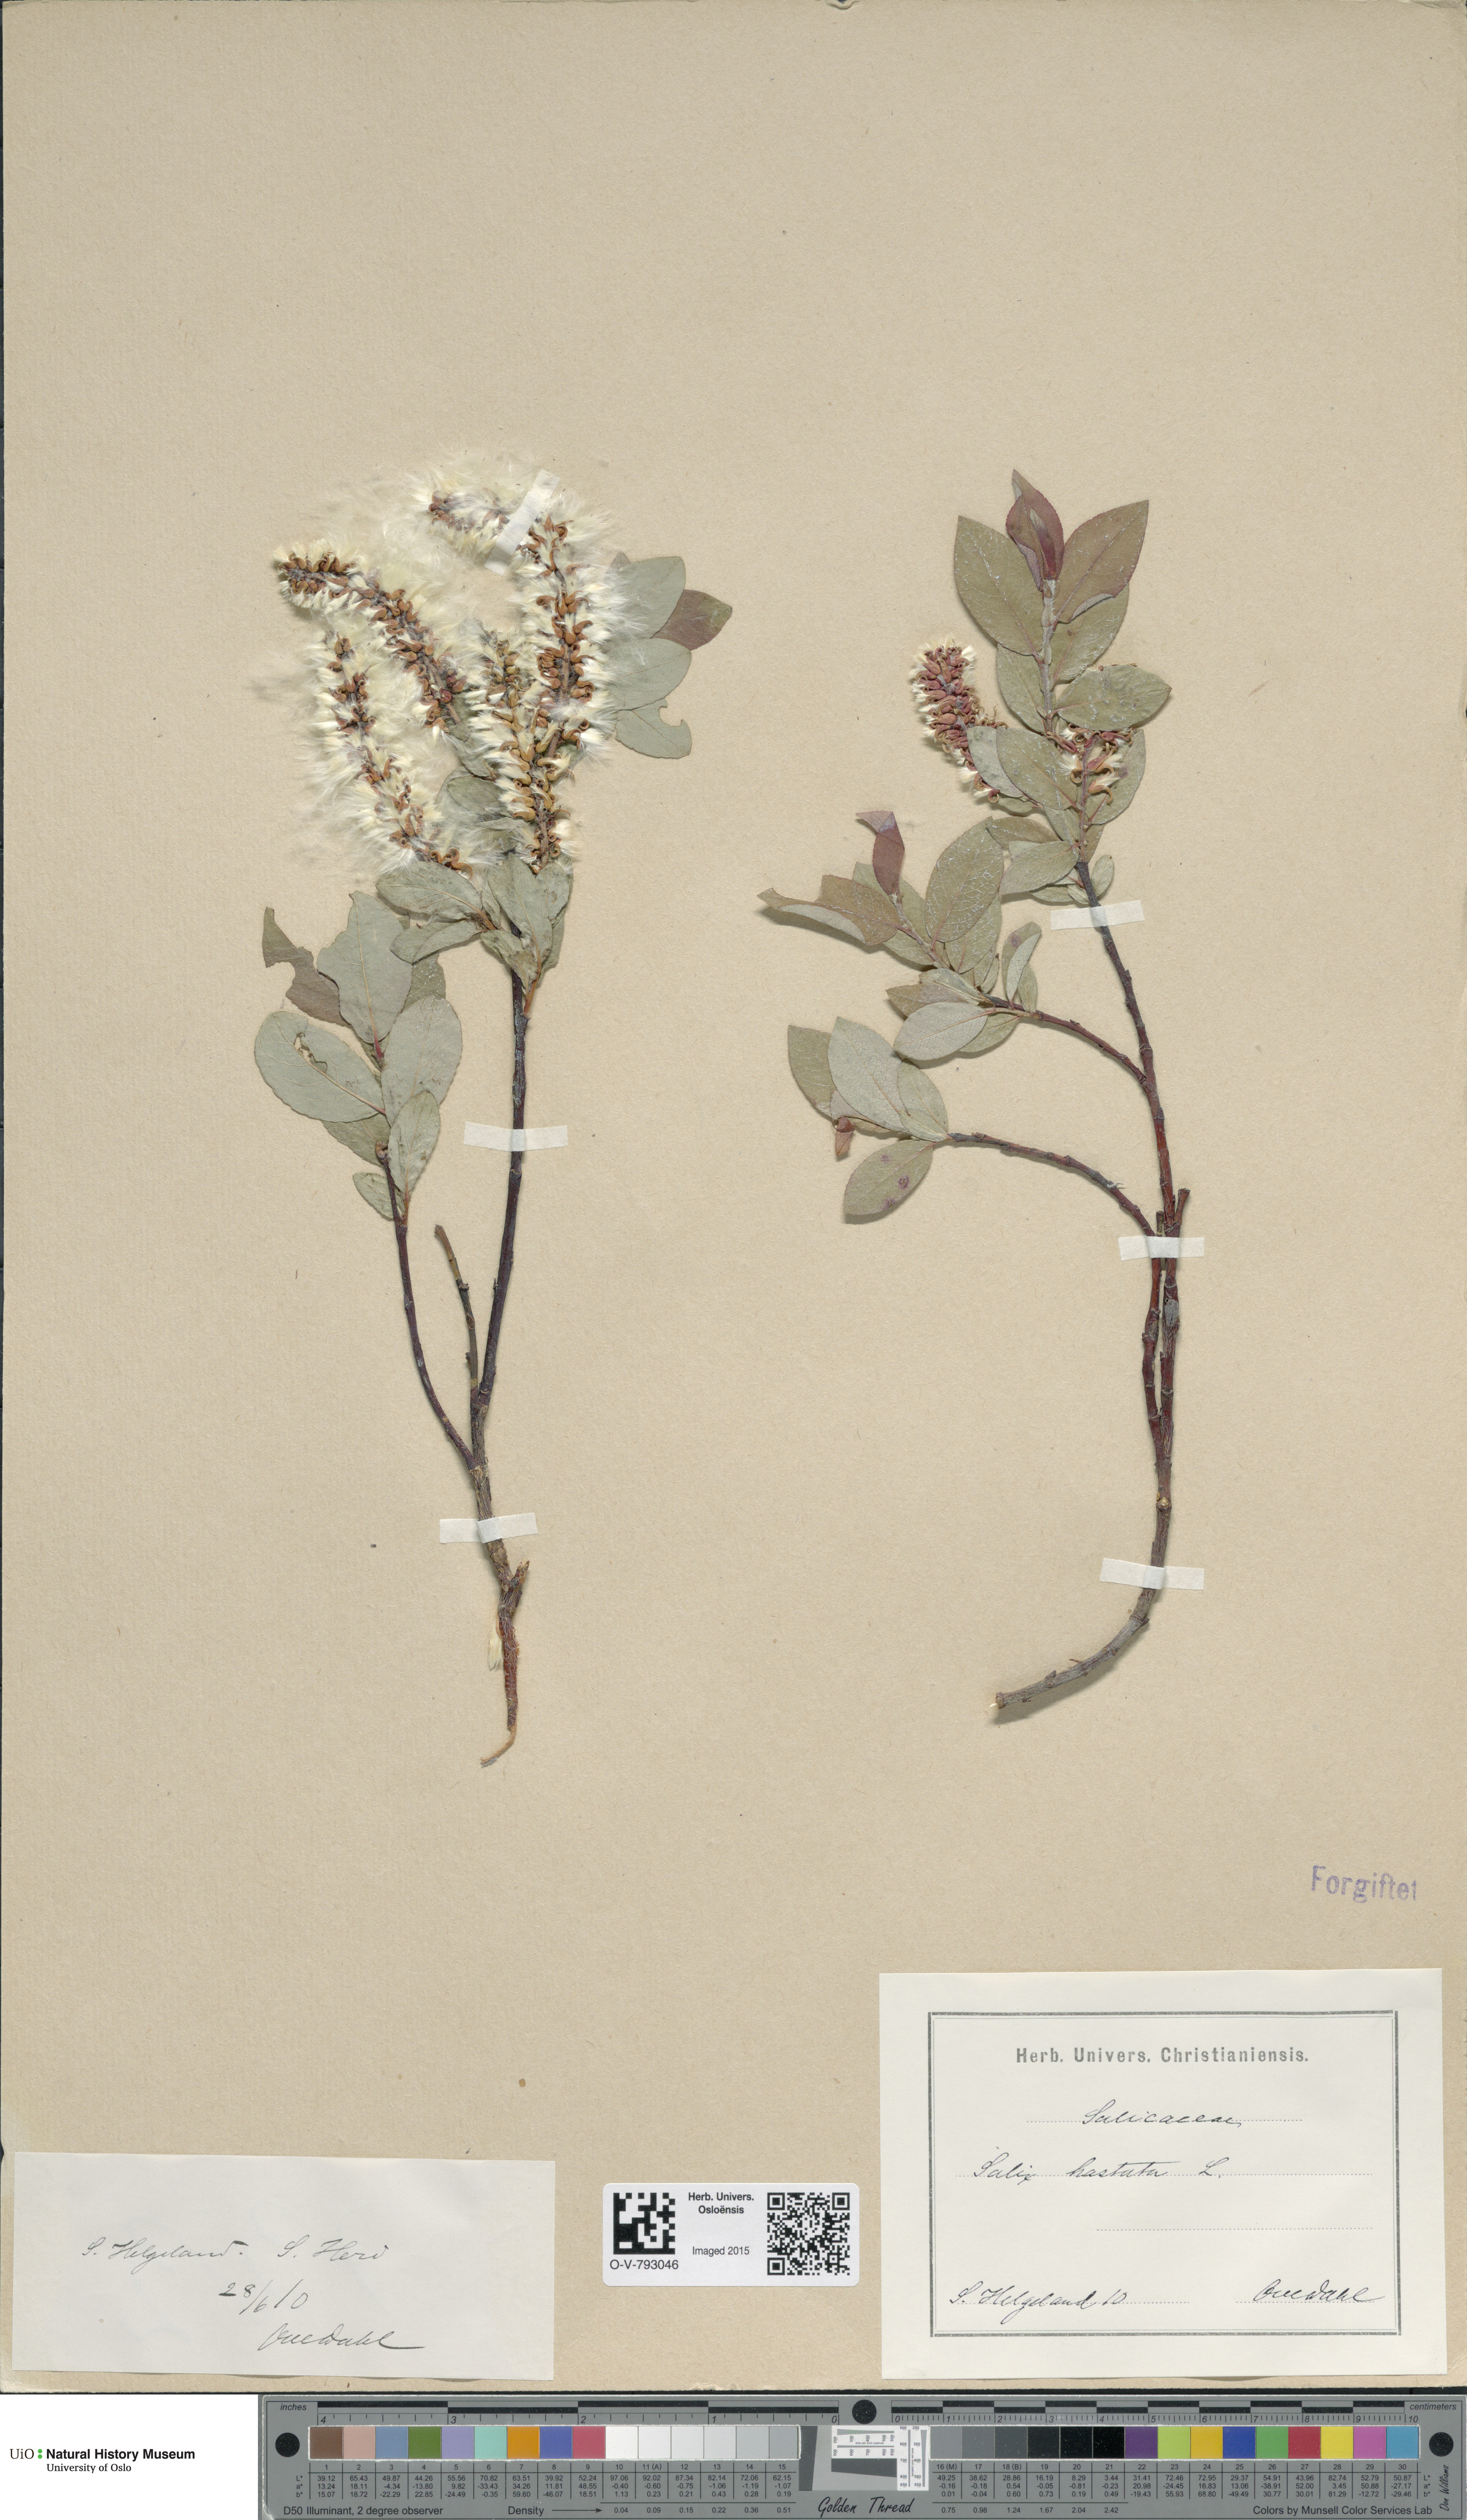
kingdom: Plantae
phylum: Tracheophyta
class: Magnoliopsida
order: Malpighiales
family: Salicaceae
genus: Salix
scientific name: Salix hastata
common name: Halberd willow
